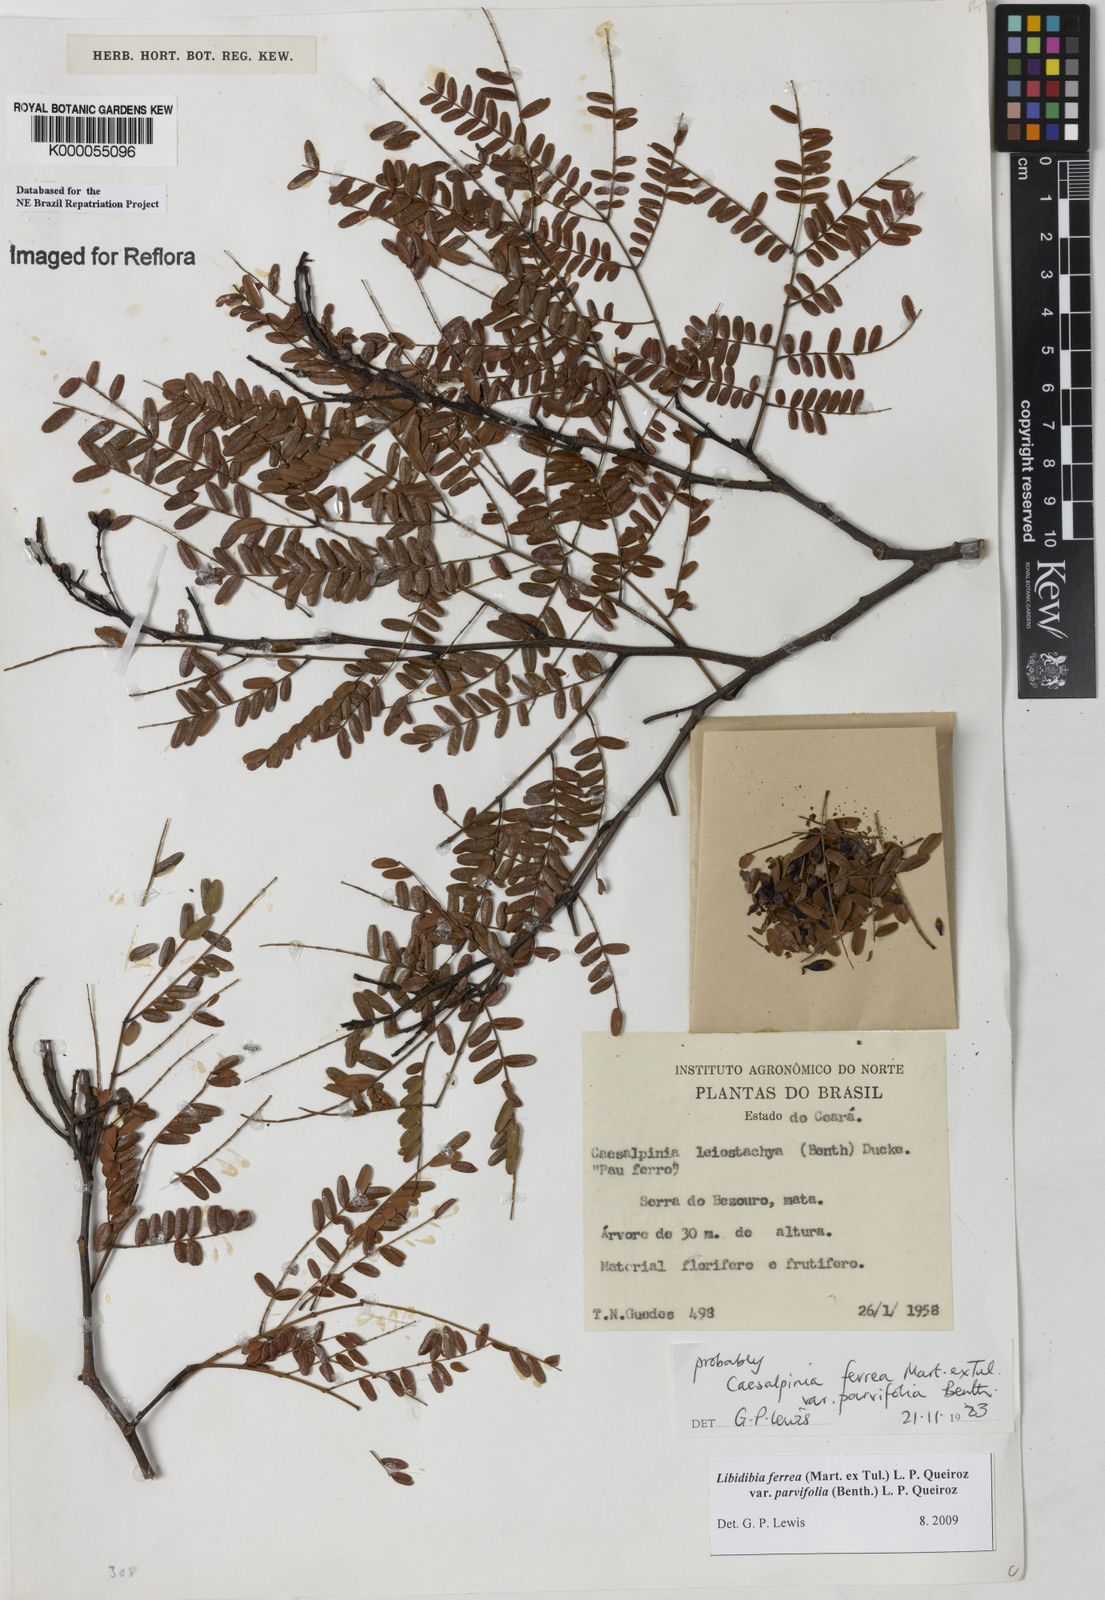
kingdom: Plantae
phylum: Tracheophyta
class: Magnoliopsida
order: Fabales
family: Fabaceae
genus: Libidibia
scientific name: Libidibia ferrea
